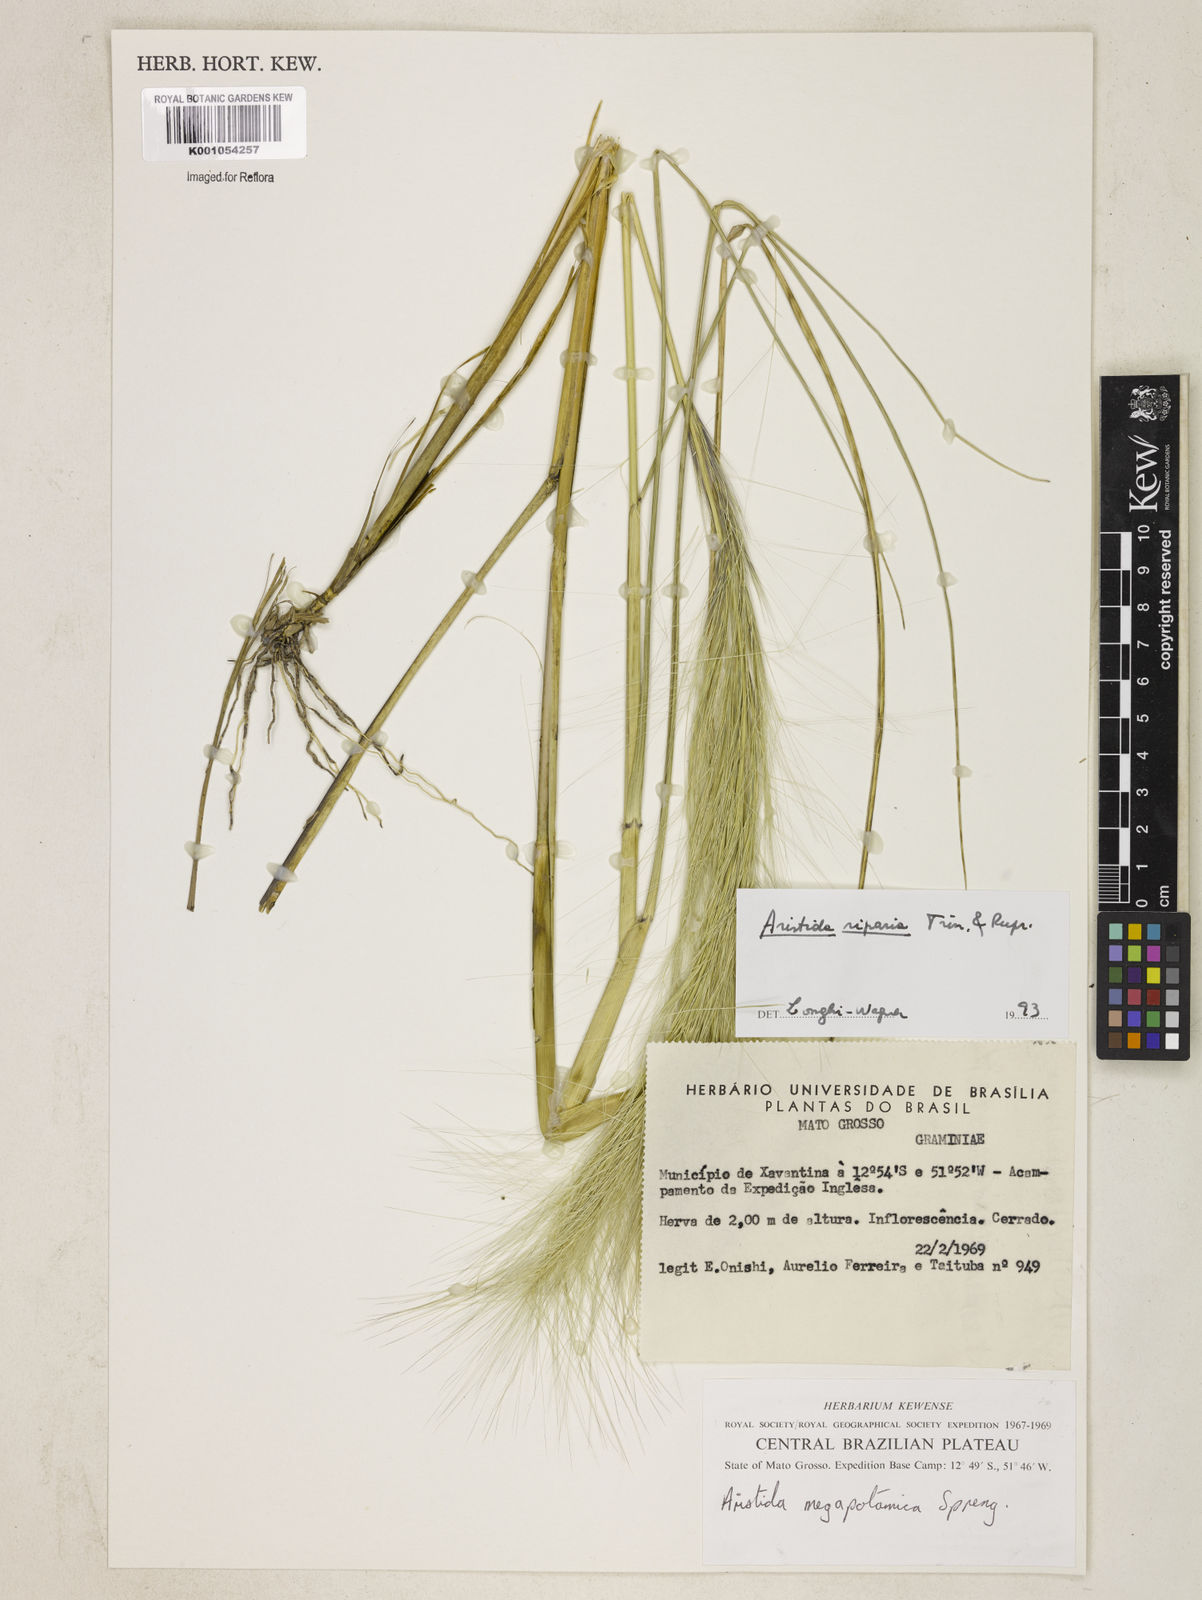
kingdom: Plantae
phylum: Tracheophyta
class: Liliopsida
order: Poales
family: Poaceae
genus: Aristida
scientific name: Aristida riparia
